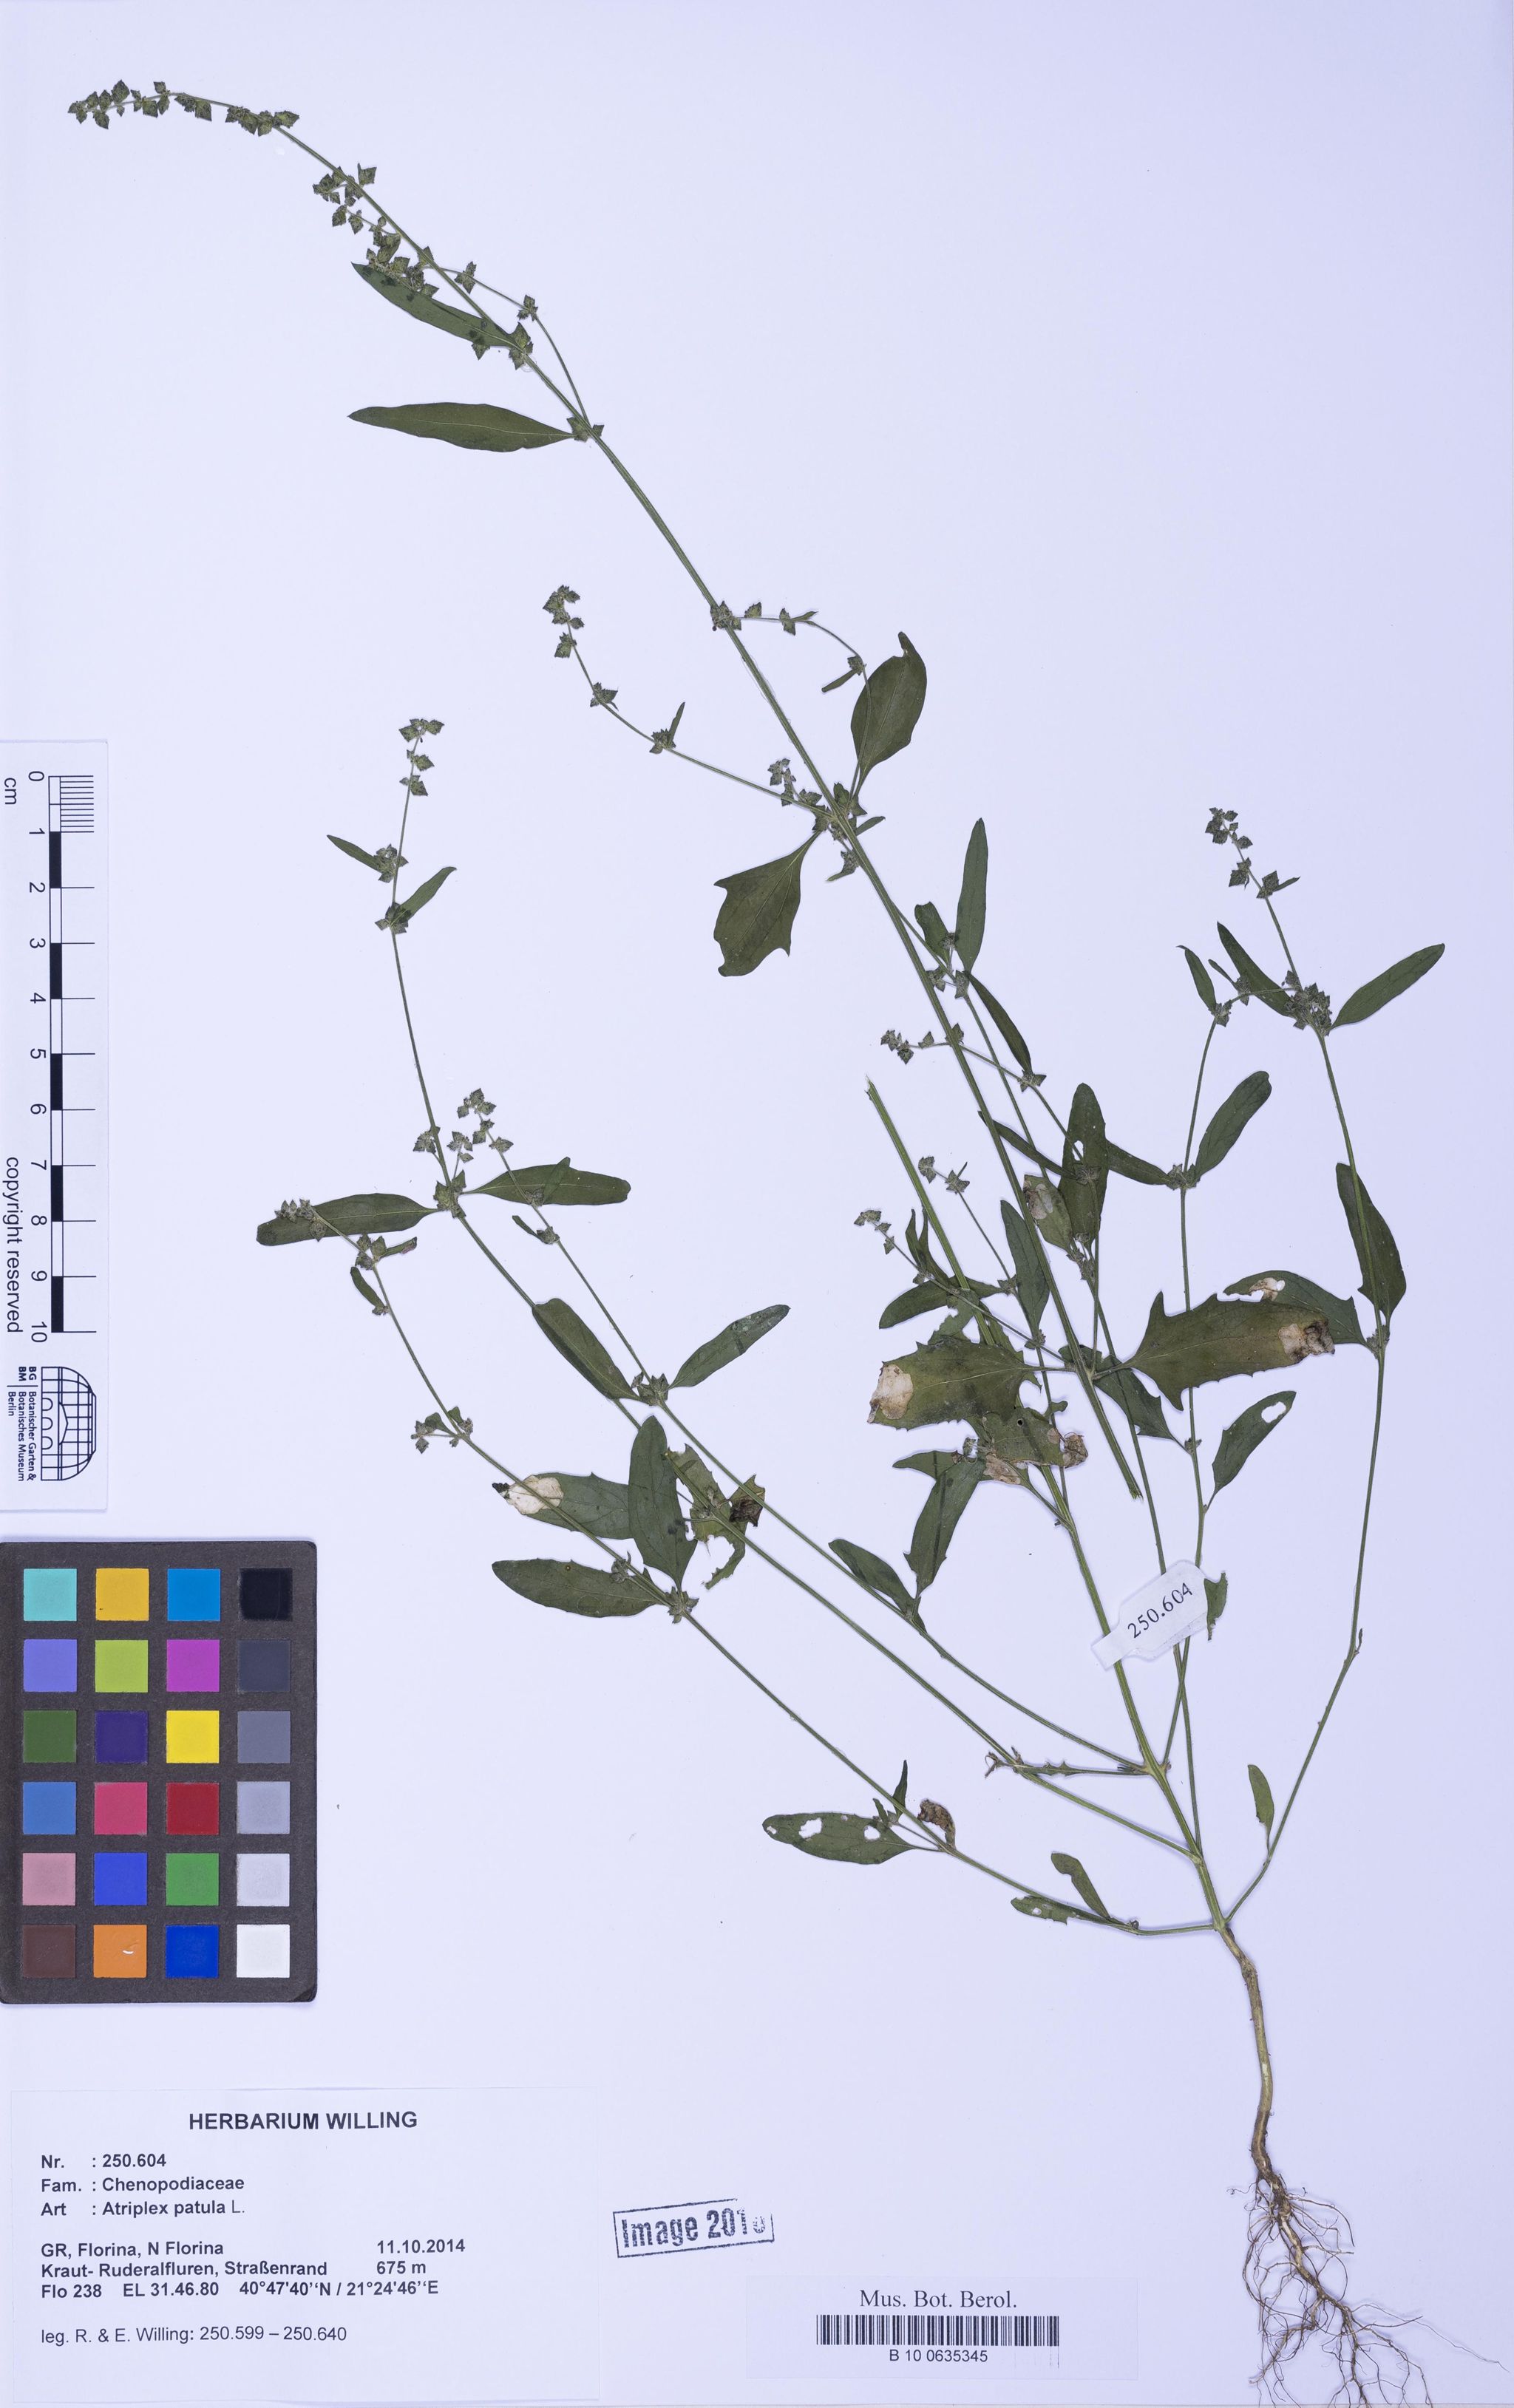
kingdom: Plantae
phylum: Tracheophyta
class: Magnoliopsida
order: Caryophyllales
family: Amaranthaceae
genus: Atriplex
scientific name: Atriplex patula
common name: Common orache
